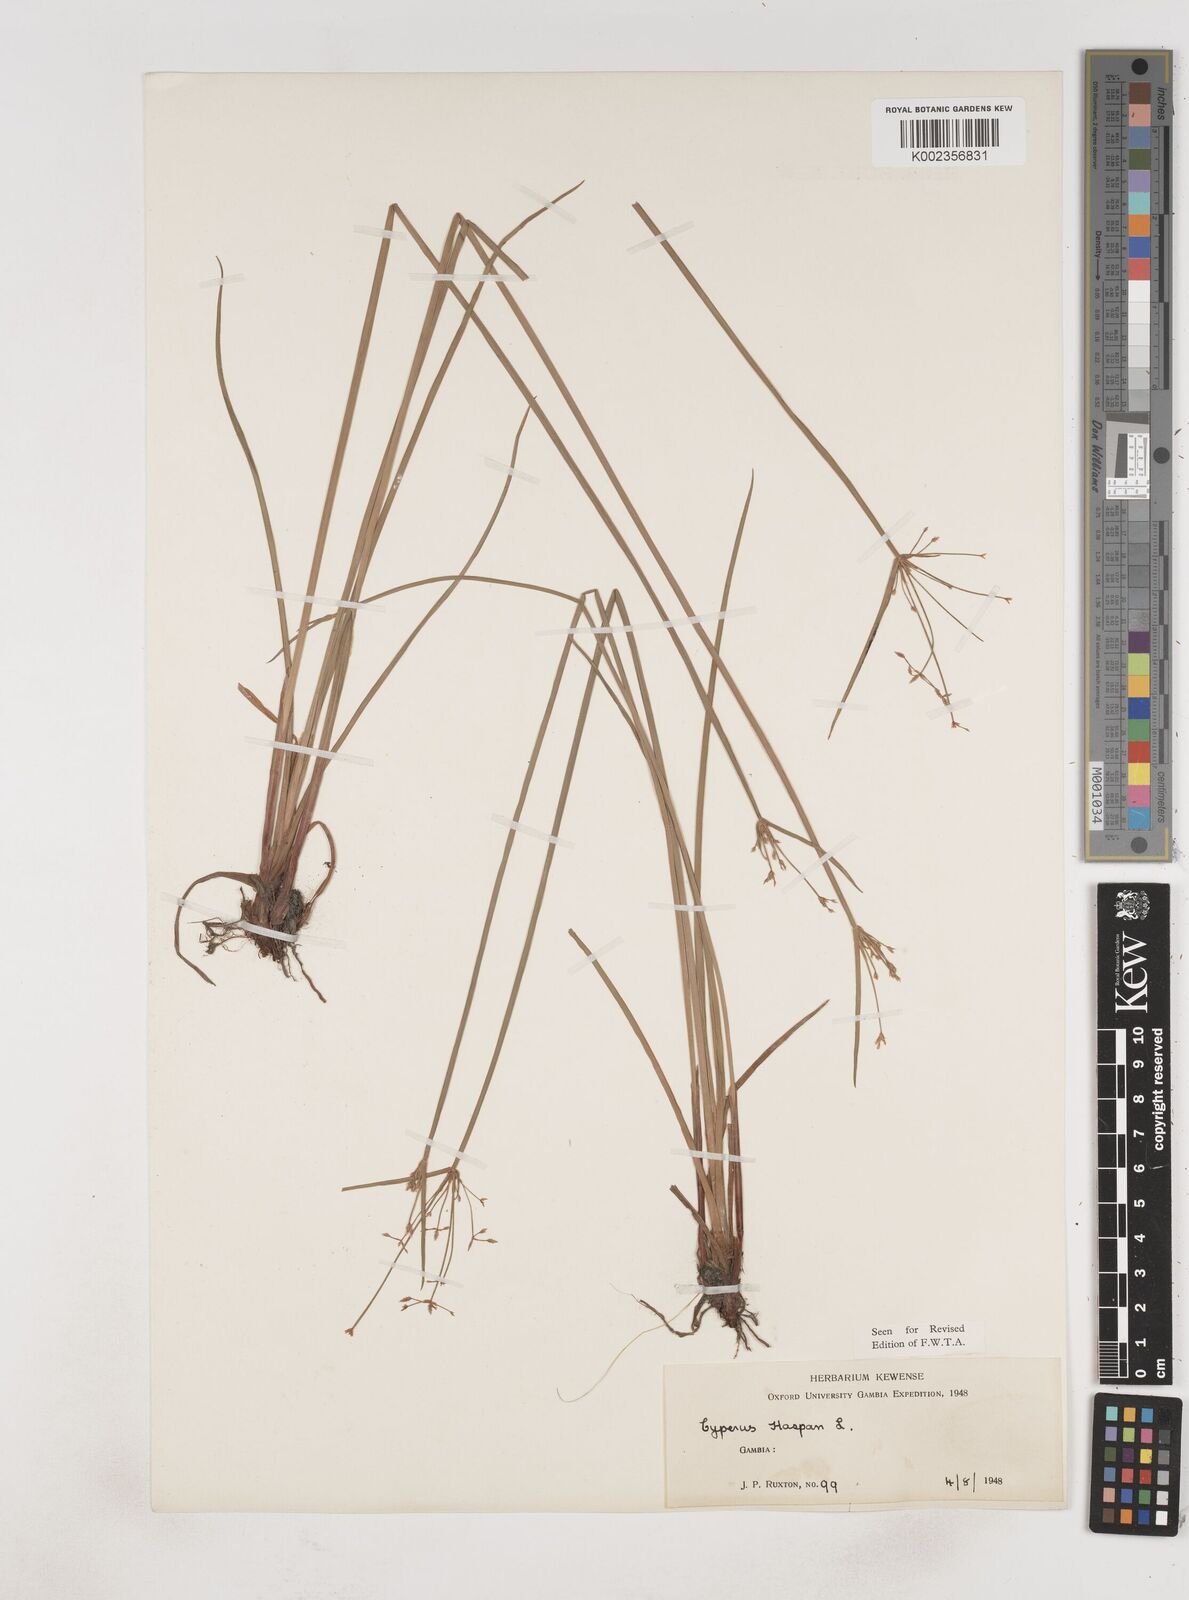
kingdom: Plantae
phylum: Tracheophyta
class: Liliopsida
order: Poales
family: Cyperaceae
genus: Cyperus
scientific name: Cyperus haspan
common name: Haspan flatsedge
